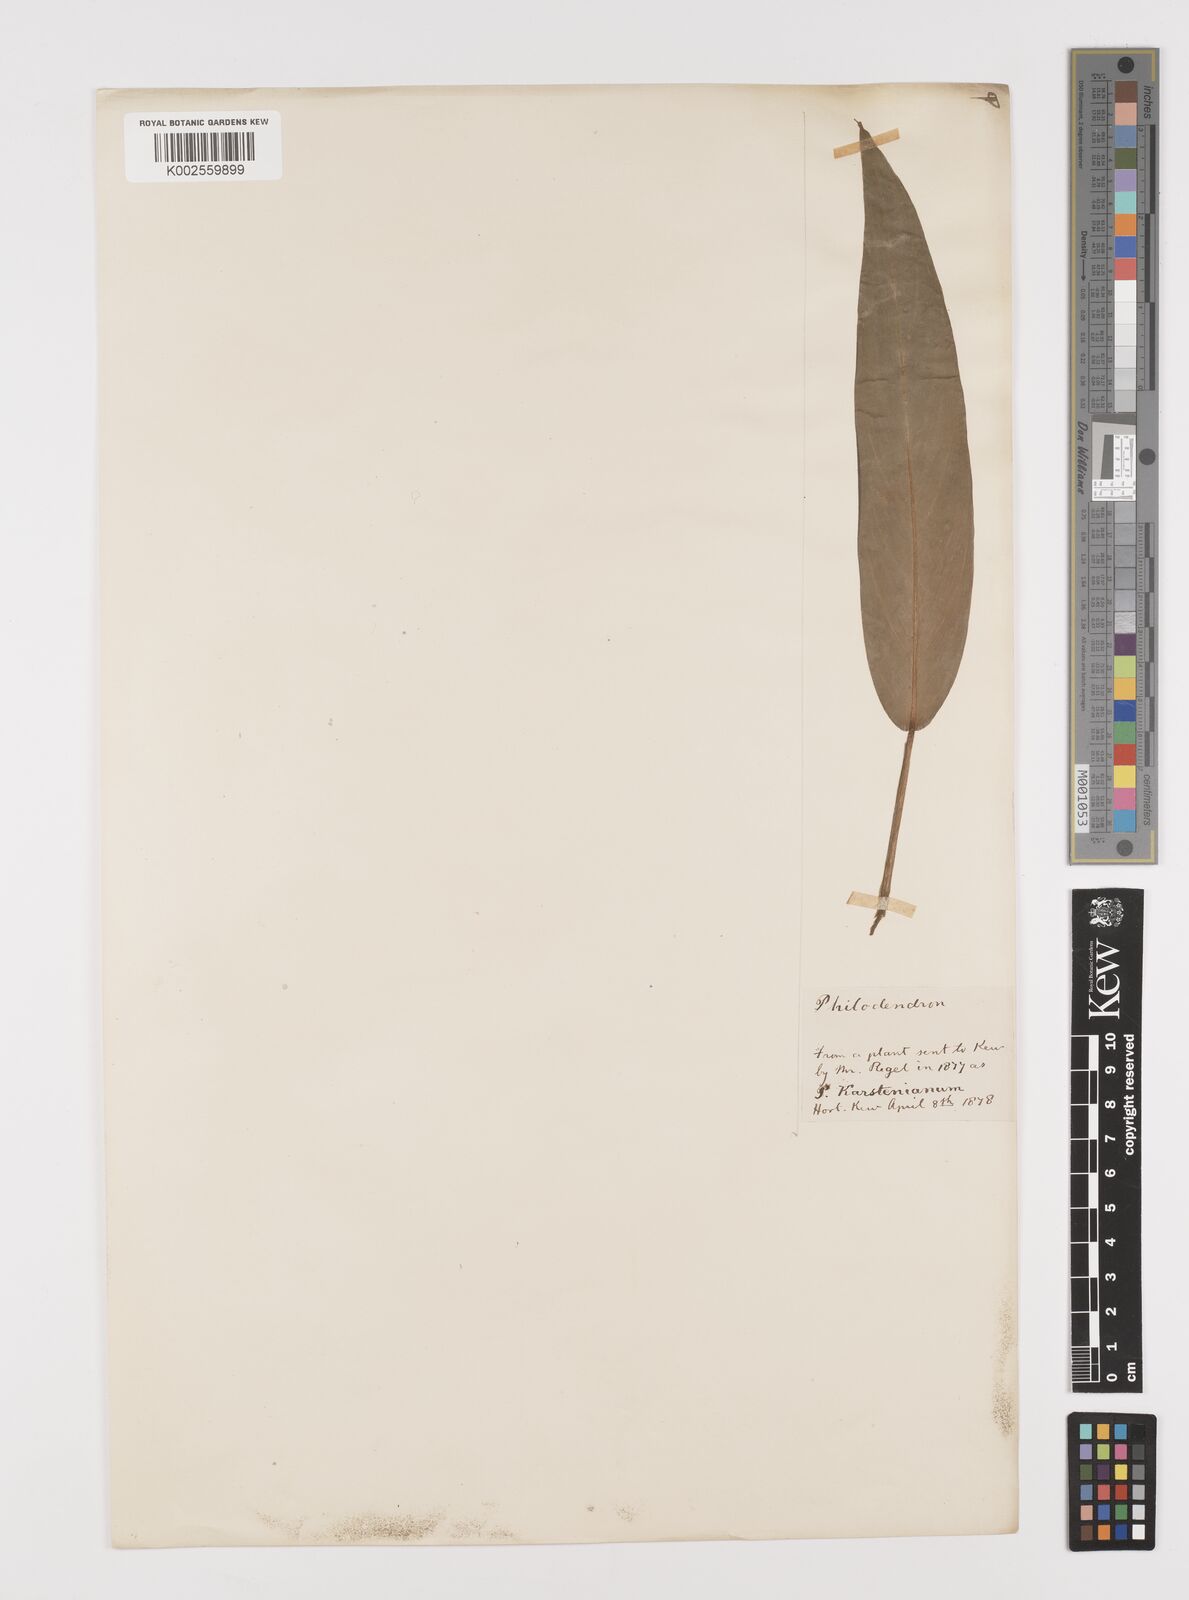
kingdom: Plantae
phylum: Tracheophyta
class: Liliopsida
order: Alismatales
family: Araceae
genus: Philodendron
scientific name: Philodendron
